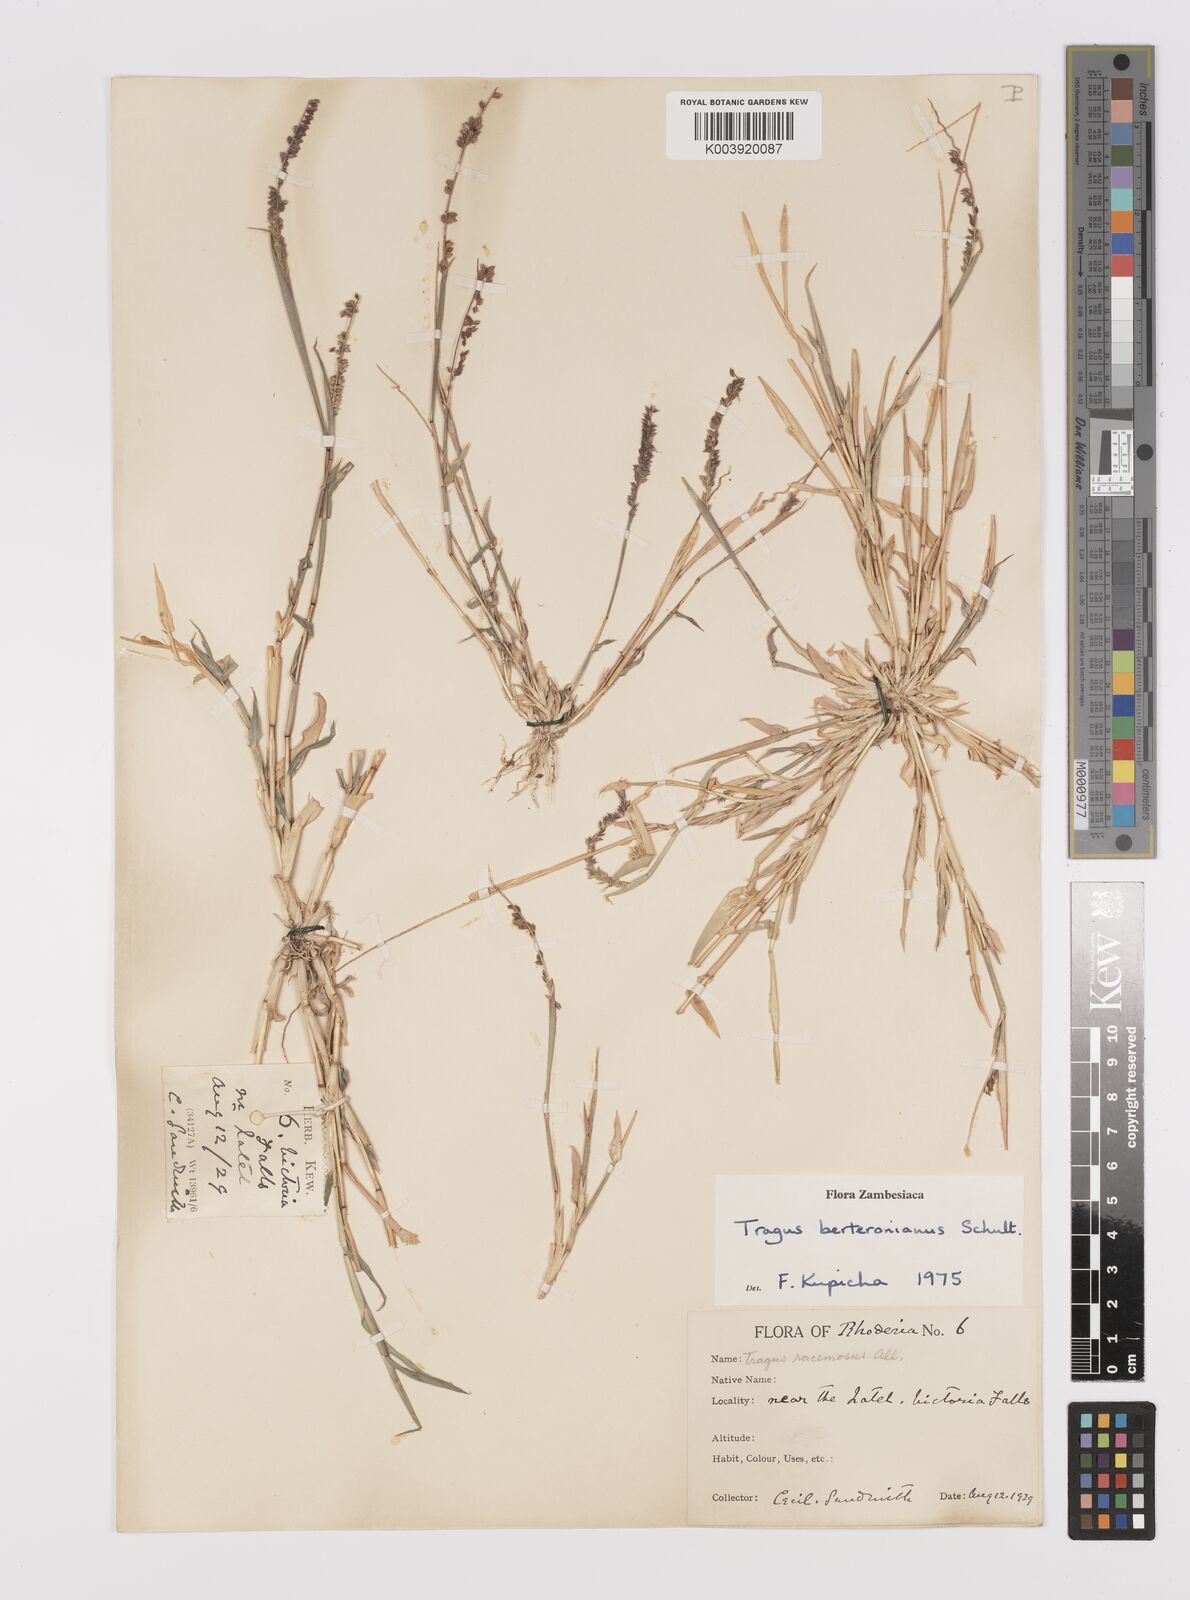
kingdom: Plantae
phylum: Tracheophyta
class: Liliopsida
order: Poales
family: Poaceae
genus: Tragus
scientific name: Tragus berteronianus
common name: African bur-grass
